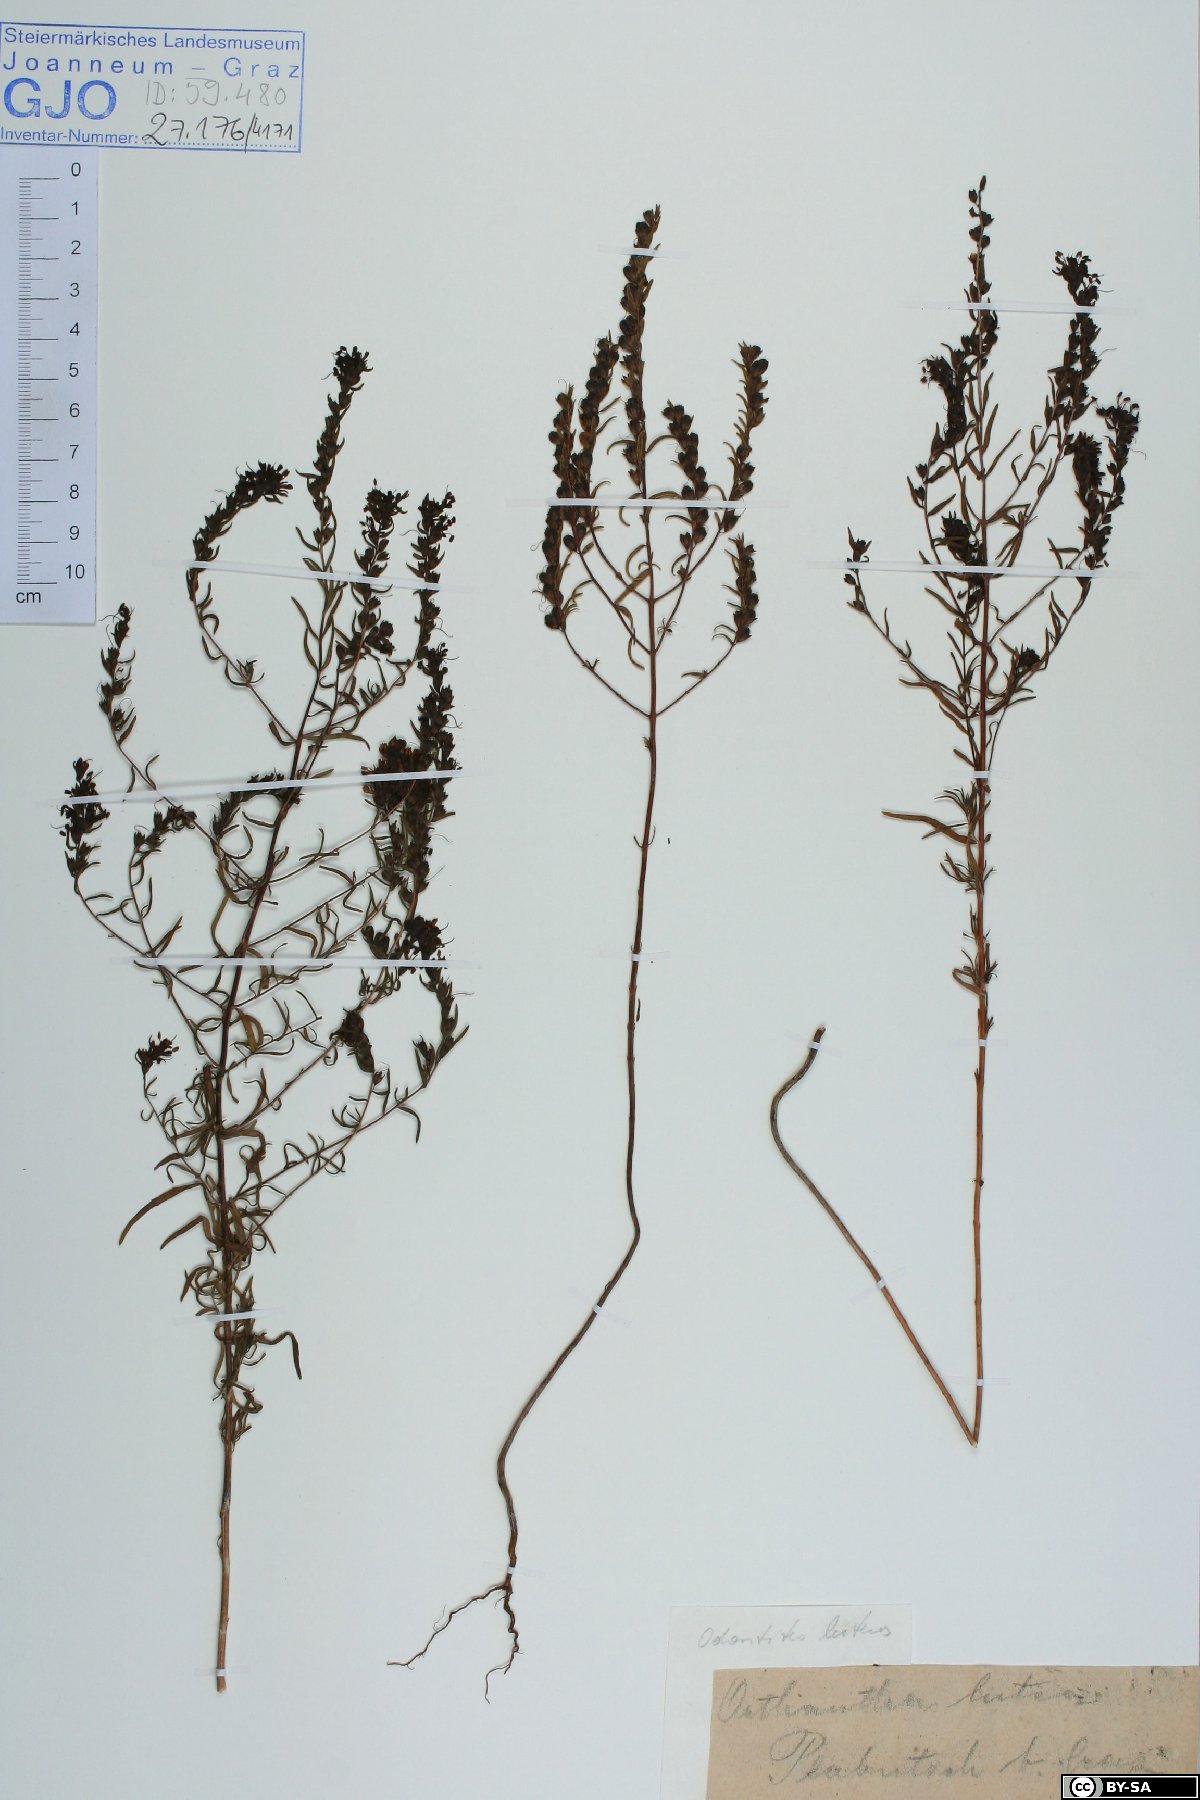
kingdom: Plantae
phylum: Tracheophyta
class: Magnoliopsida
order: Lamiales
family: Orobanchaceae
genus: Odontites
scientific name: Odontites luteus
